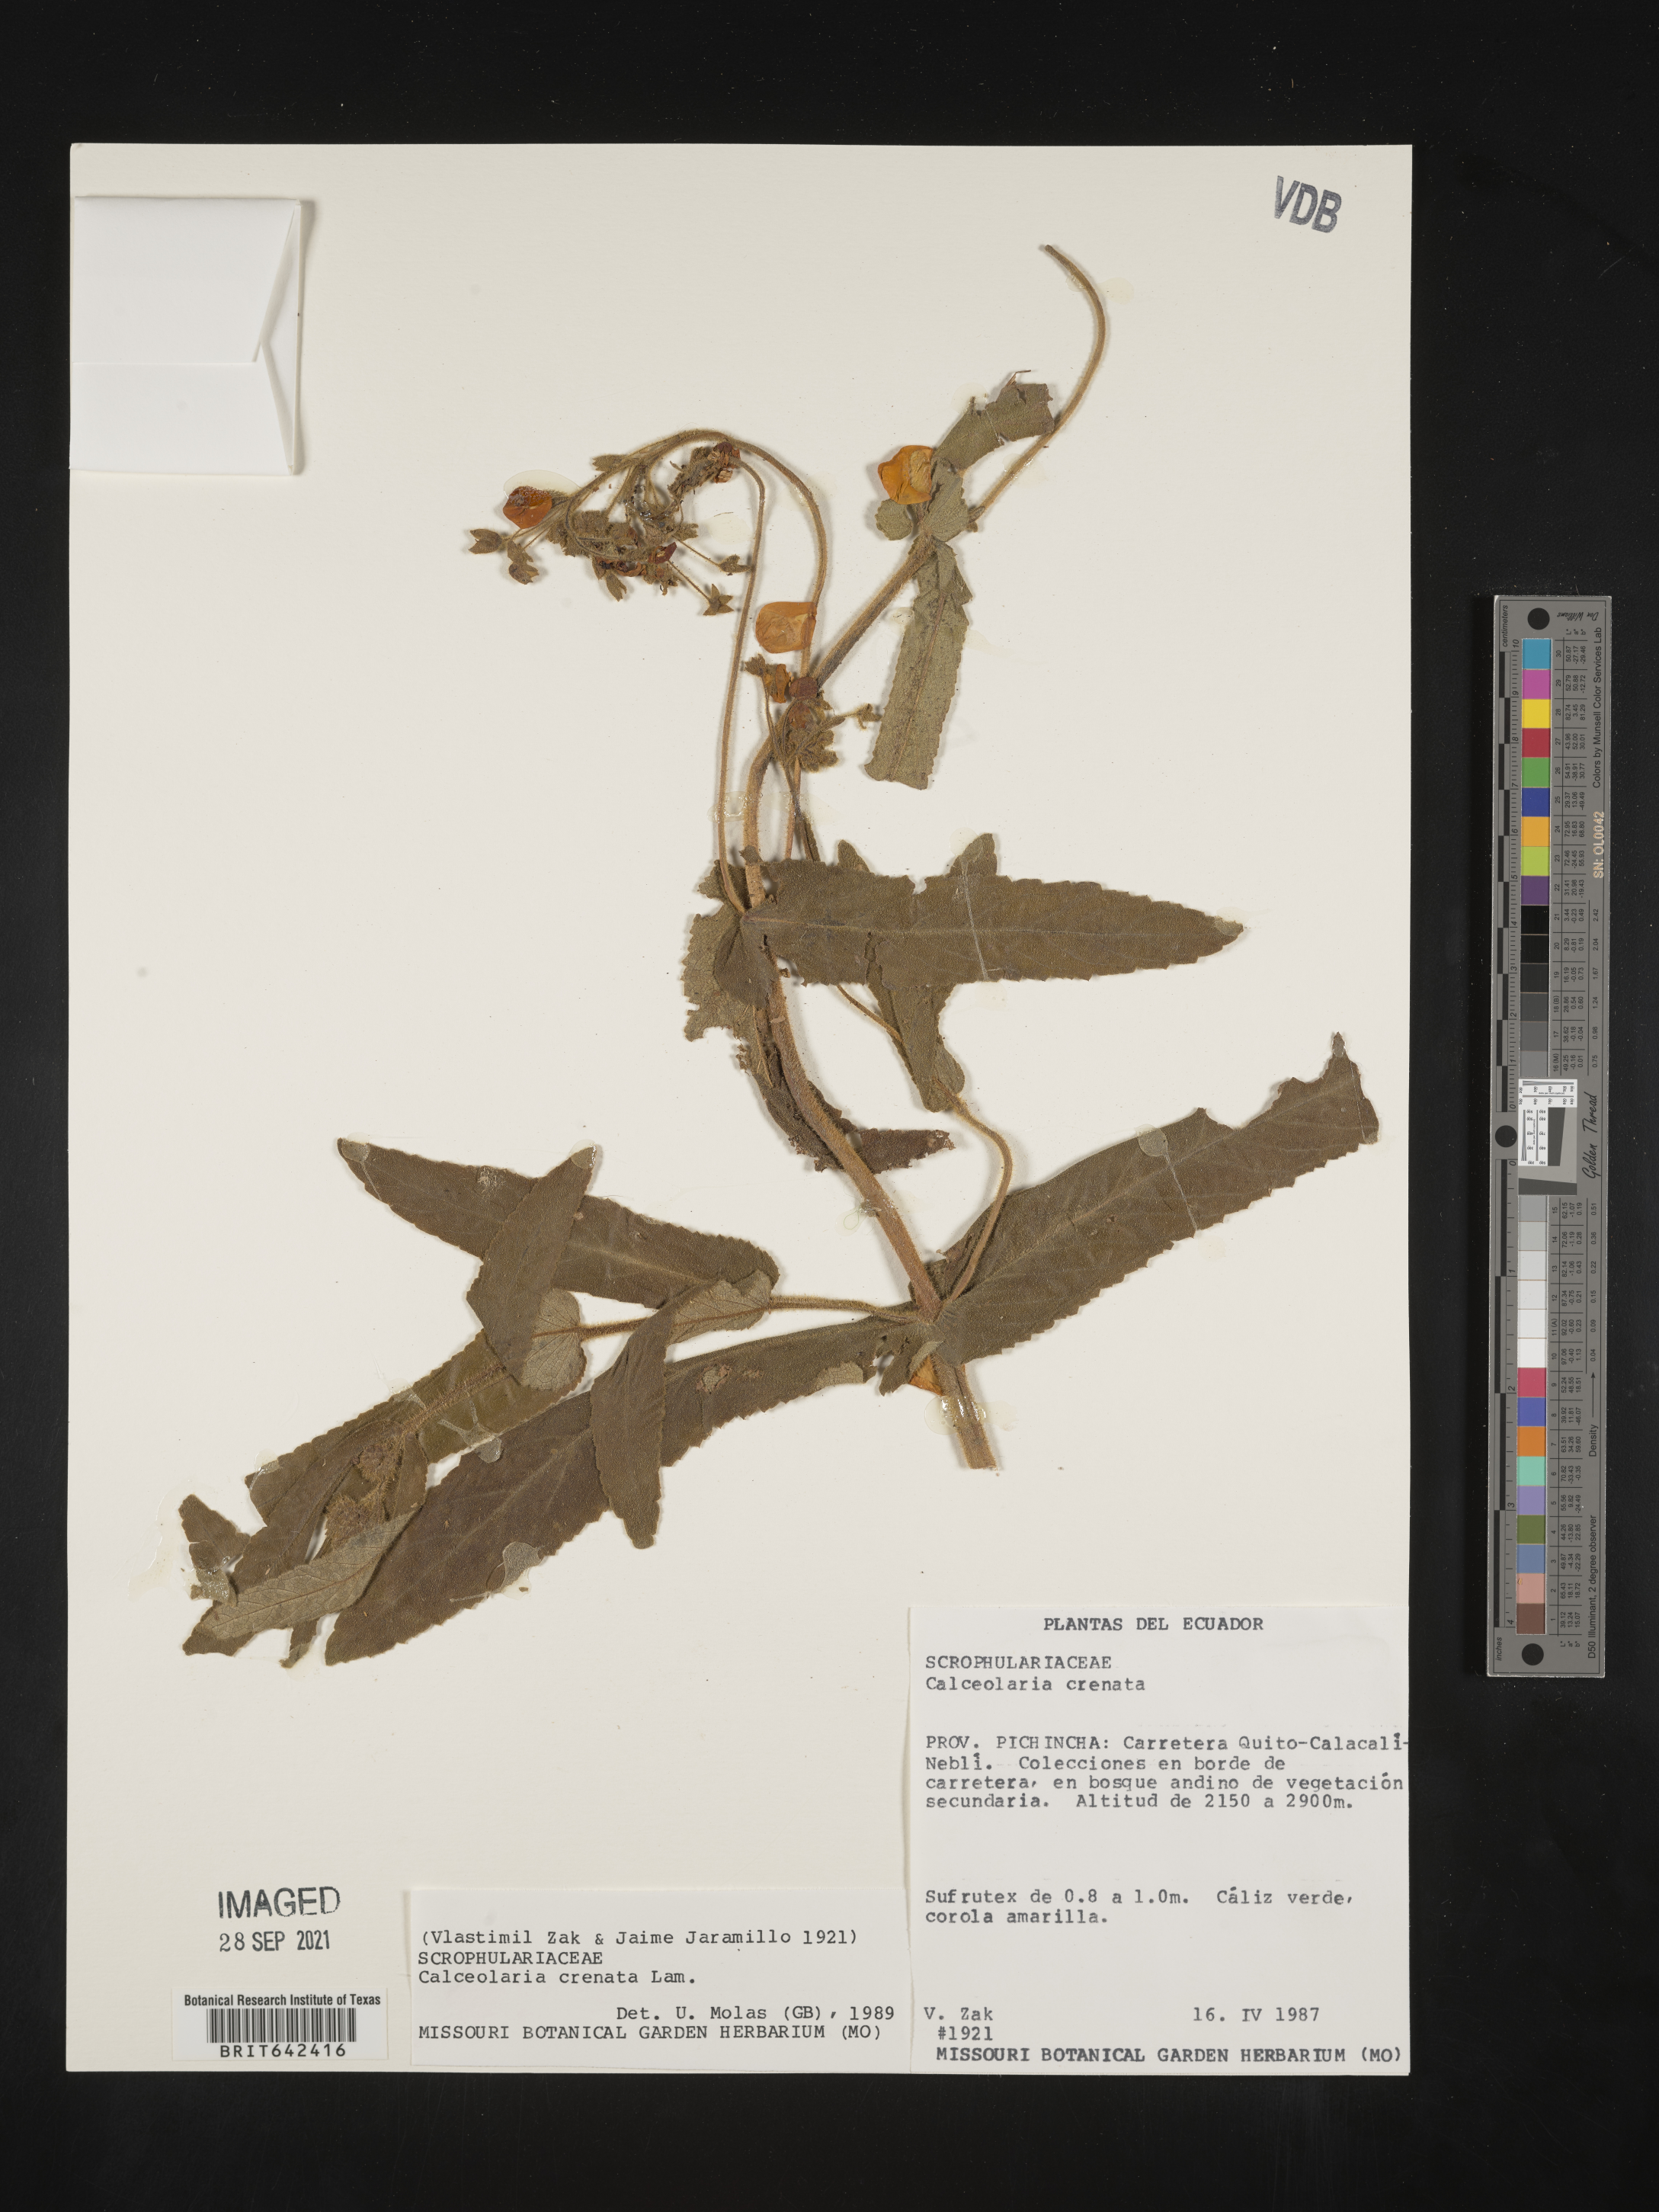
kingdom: Plantae
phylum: Tracheophyta
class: Magnoliopsida
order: Lamiales
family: Calceolariaceae
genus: Calceolaria
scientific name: Calceolaria crenata
